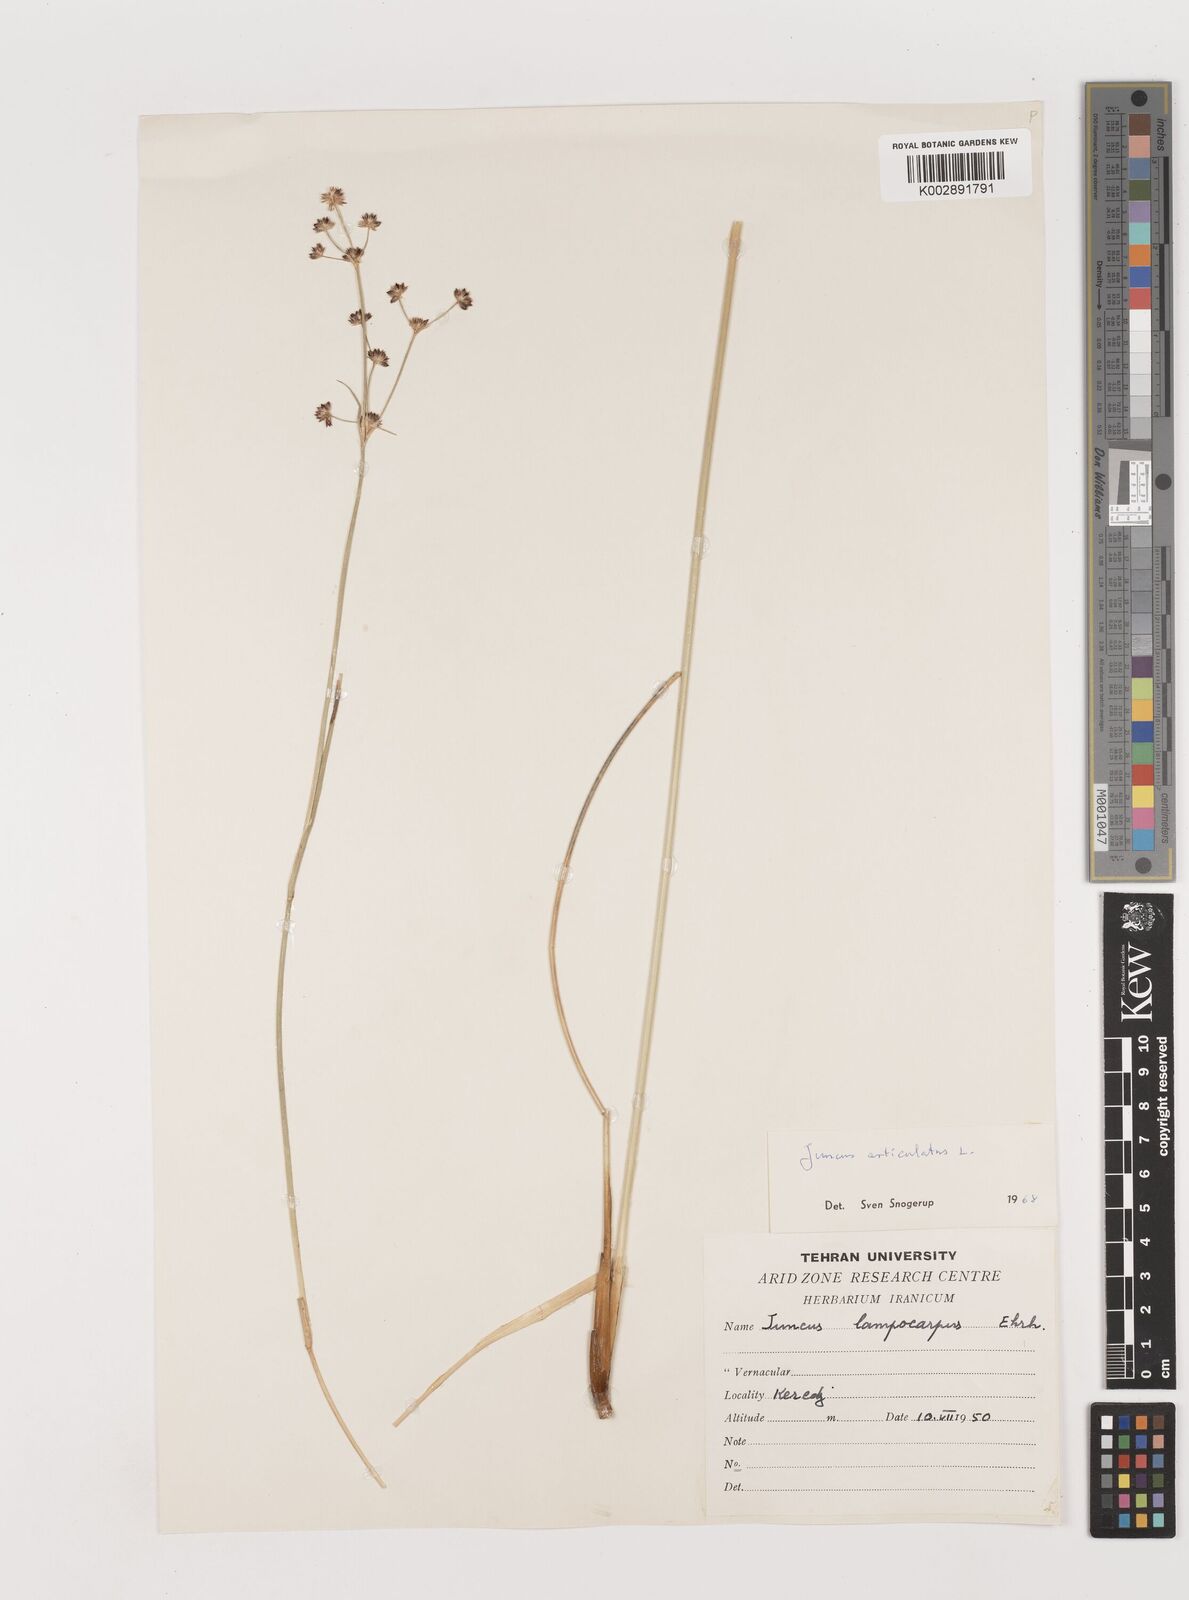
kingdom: Plantae
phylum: Tracheophyta
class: Liliopsida
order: Poales
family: Juncaceae
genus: Juncus
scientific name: Juncus articulatus
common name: Jointed rush
